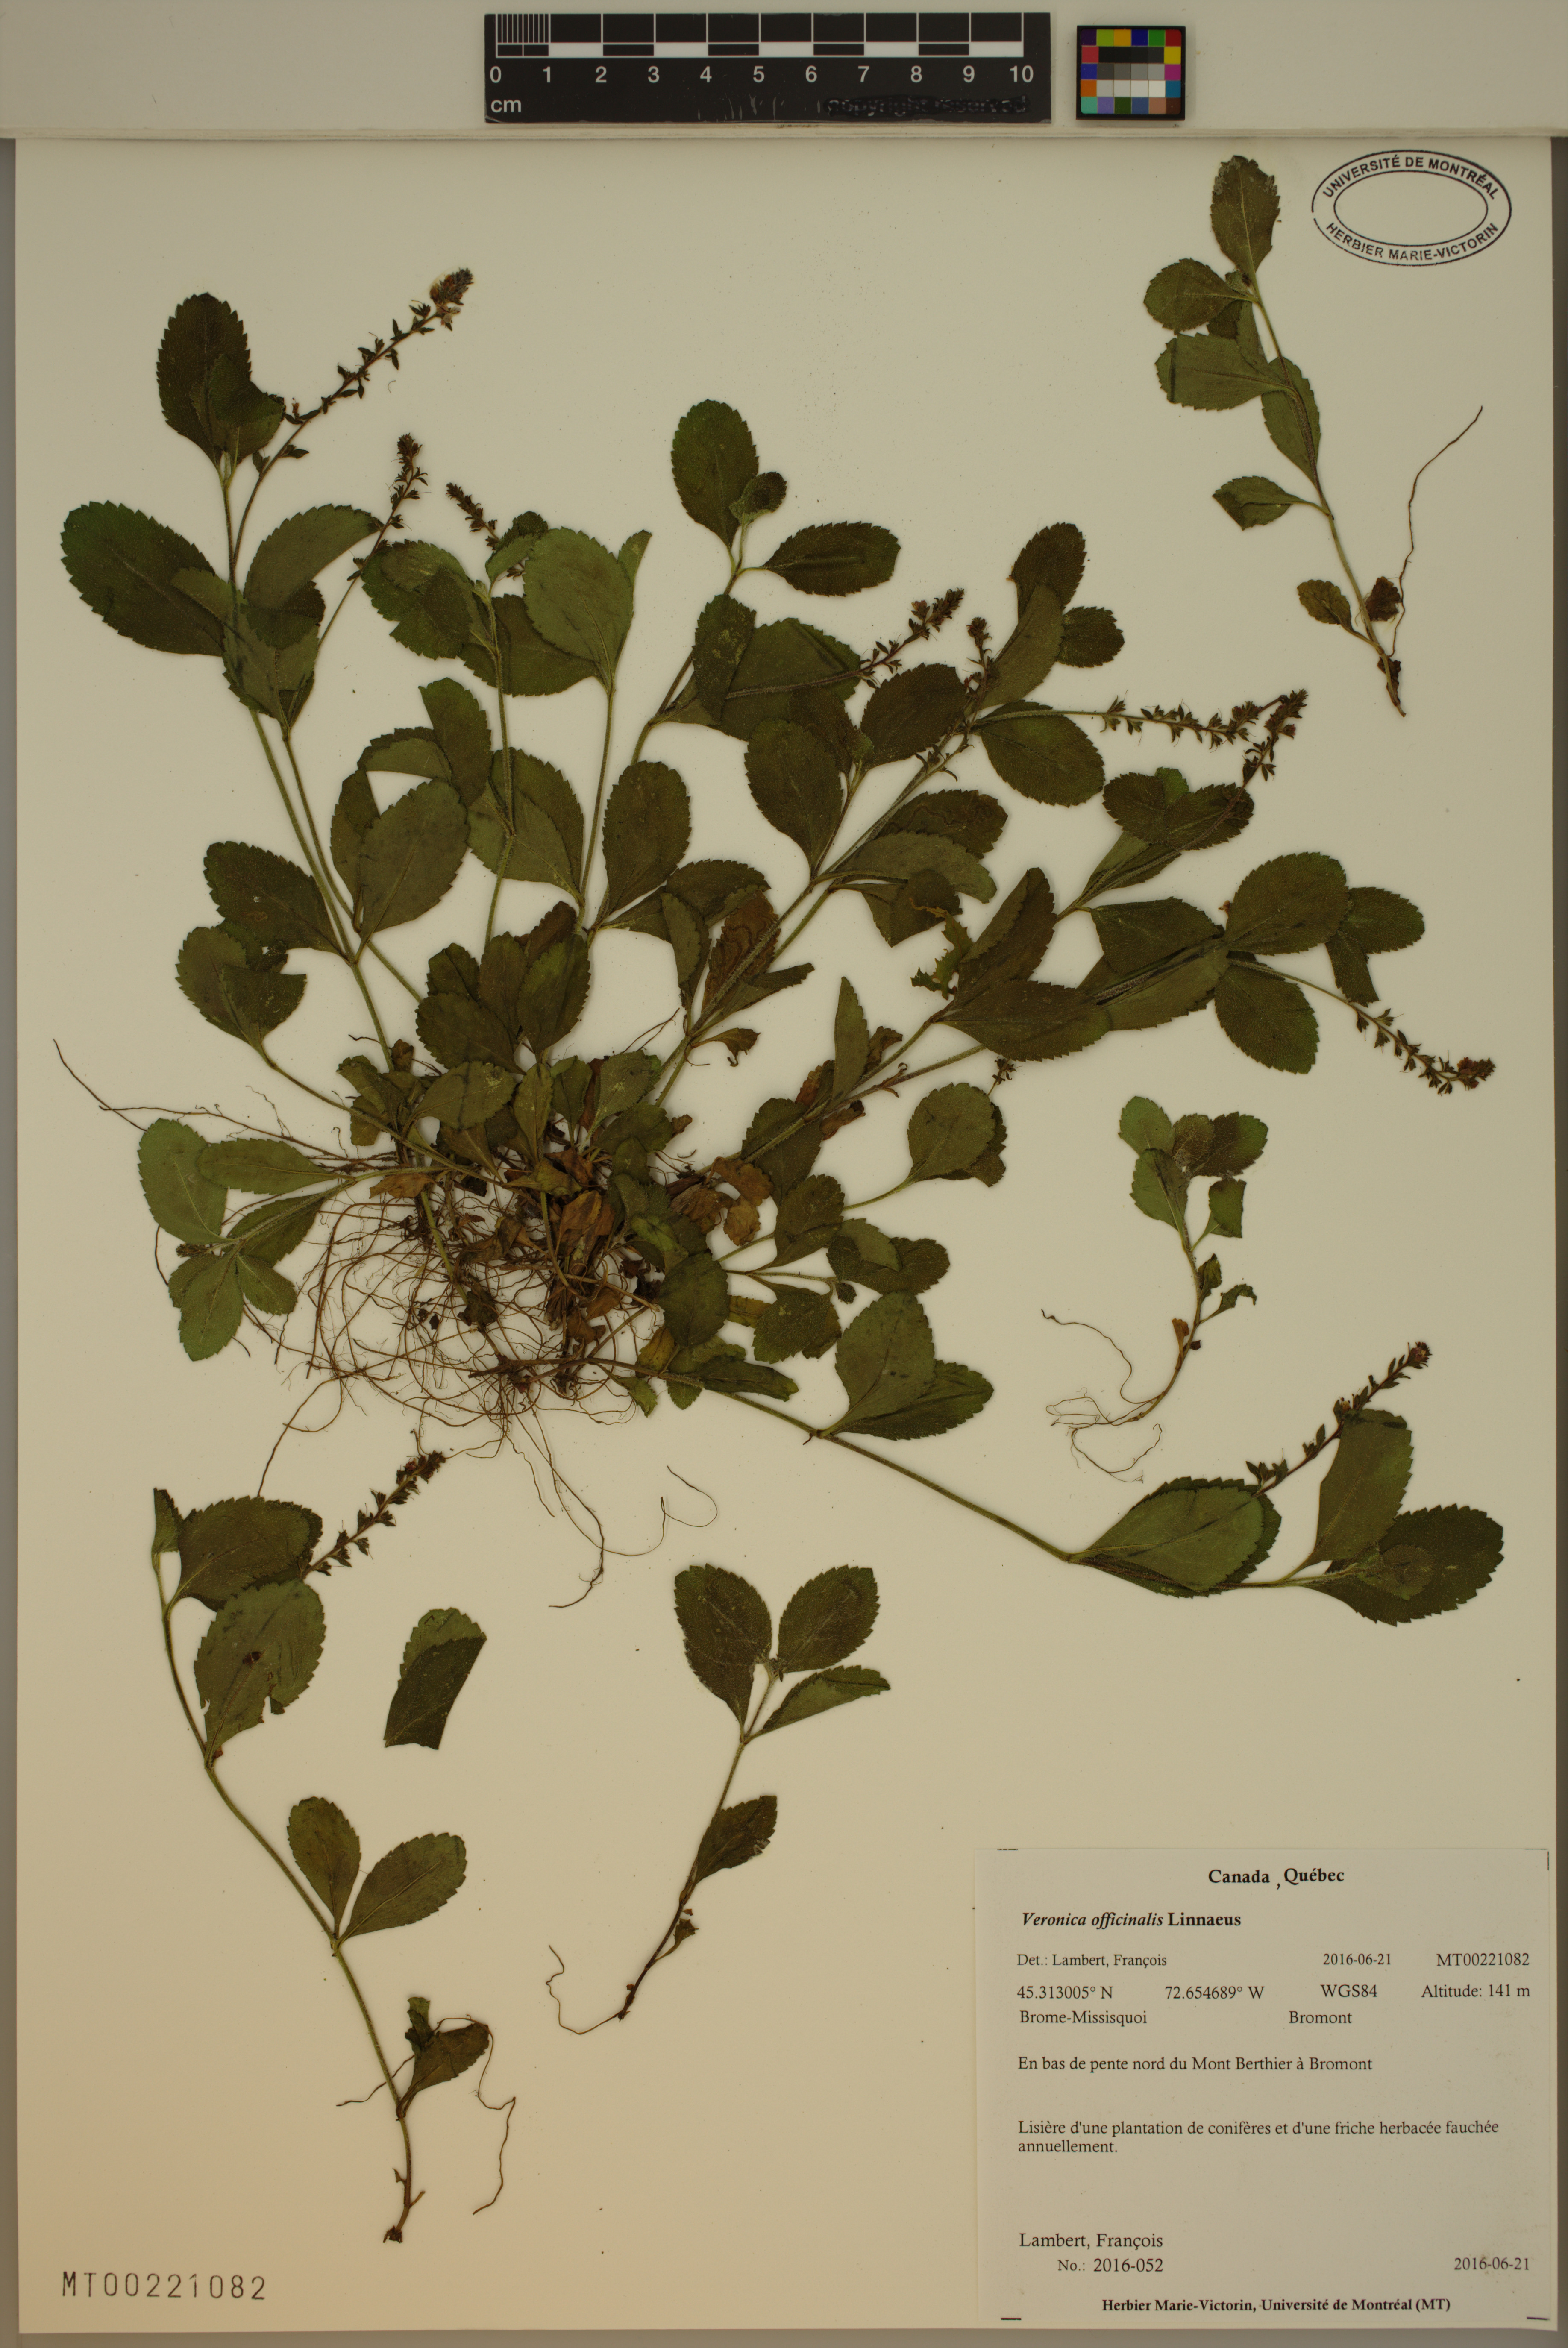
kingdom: Plantae
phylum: Tracheophyta
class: Magnoliopsida
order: Lamiales
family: Plantaginaceae
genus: Veronica
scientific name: Veronica officinalis
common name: Common speedwell
